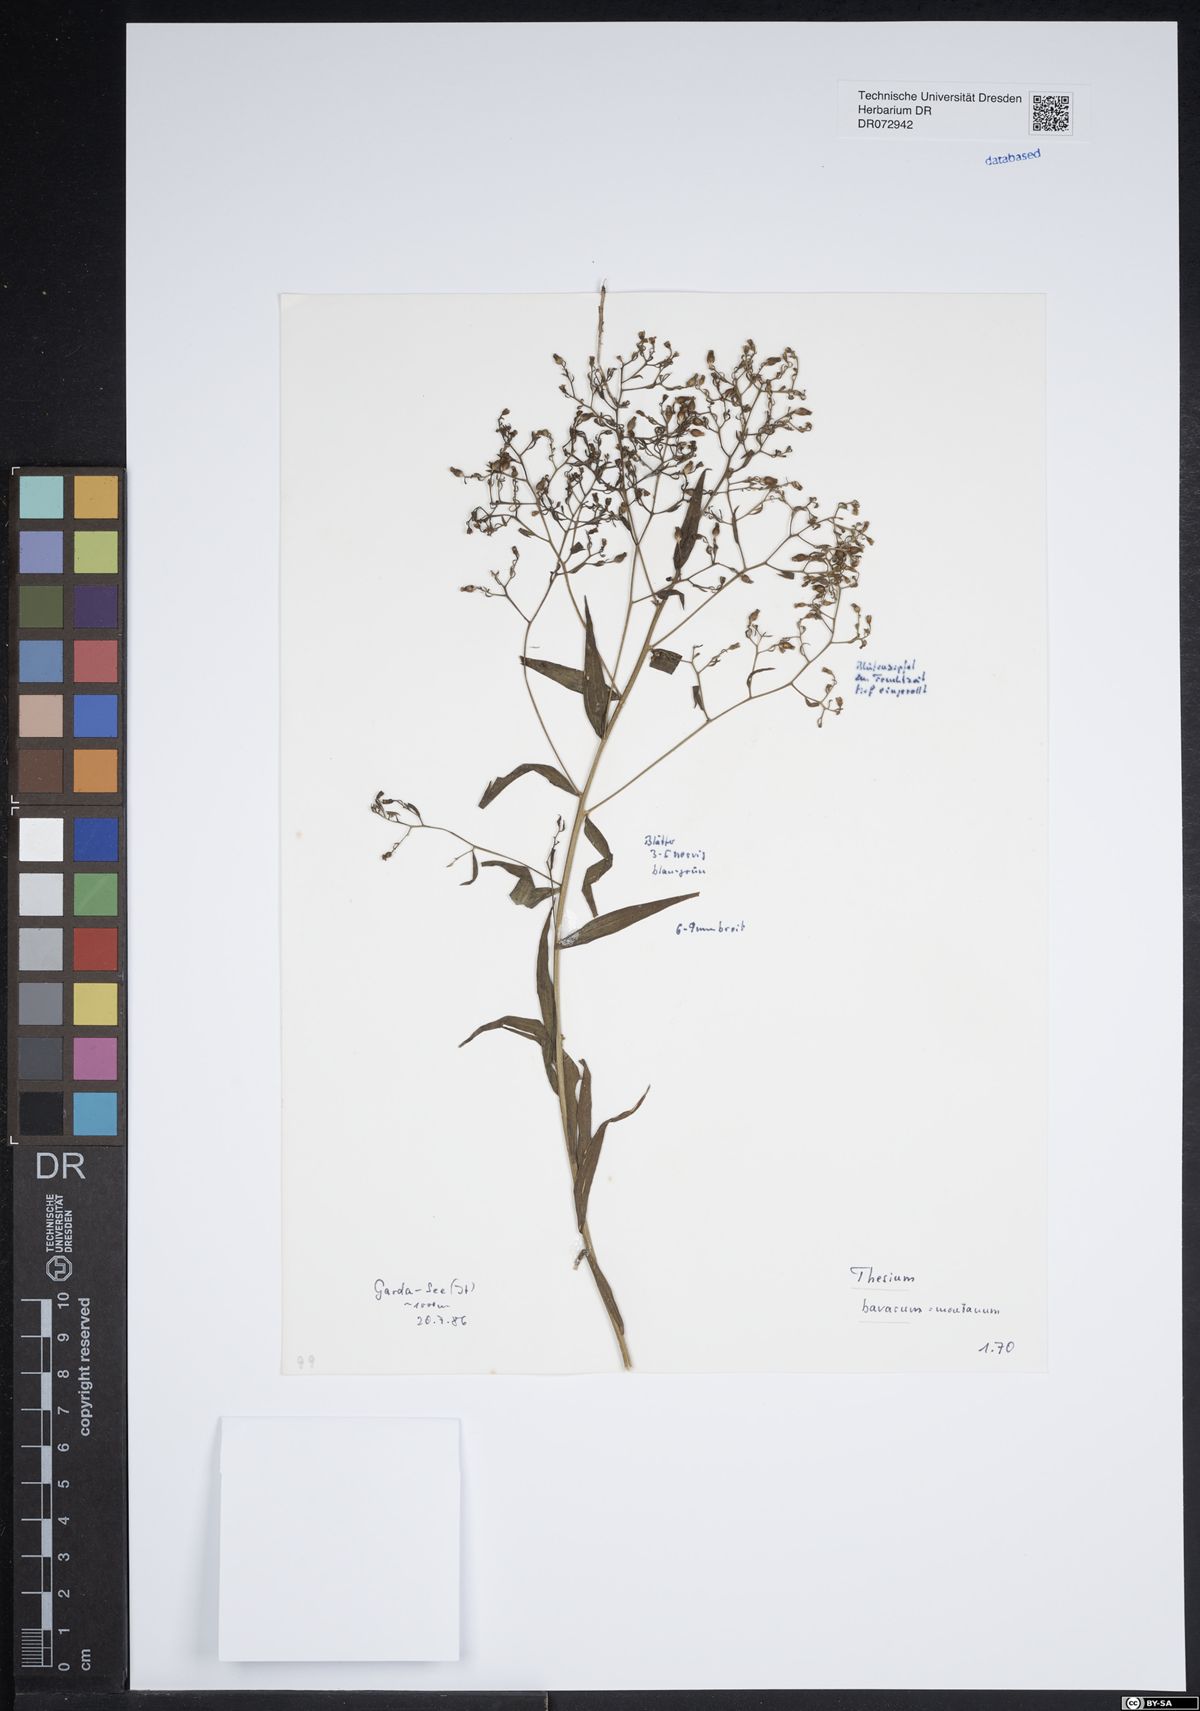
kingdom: Plantae
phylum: Tracheophyta
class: Magnoliopsida
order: Santalales
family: Thesiaceae
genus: Thesium
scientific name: Thesium bavarum
